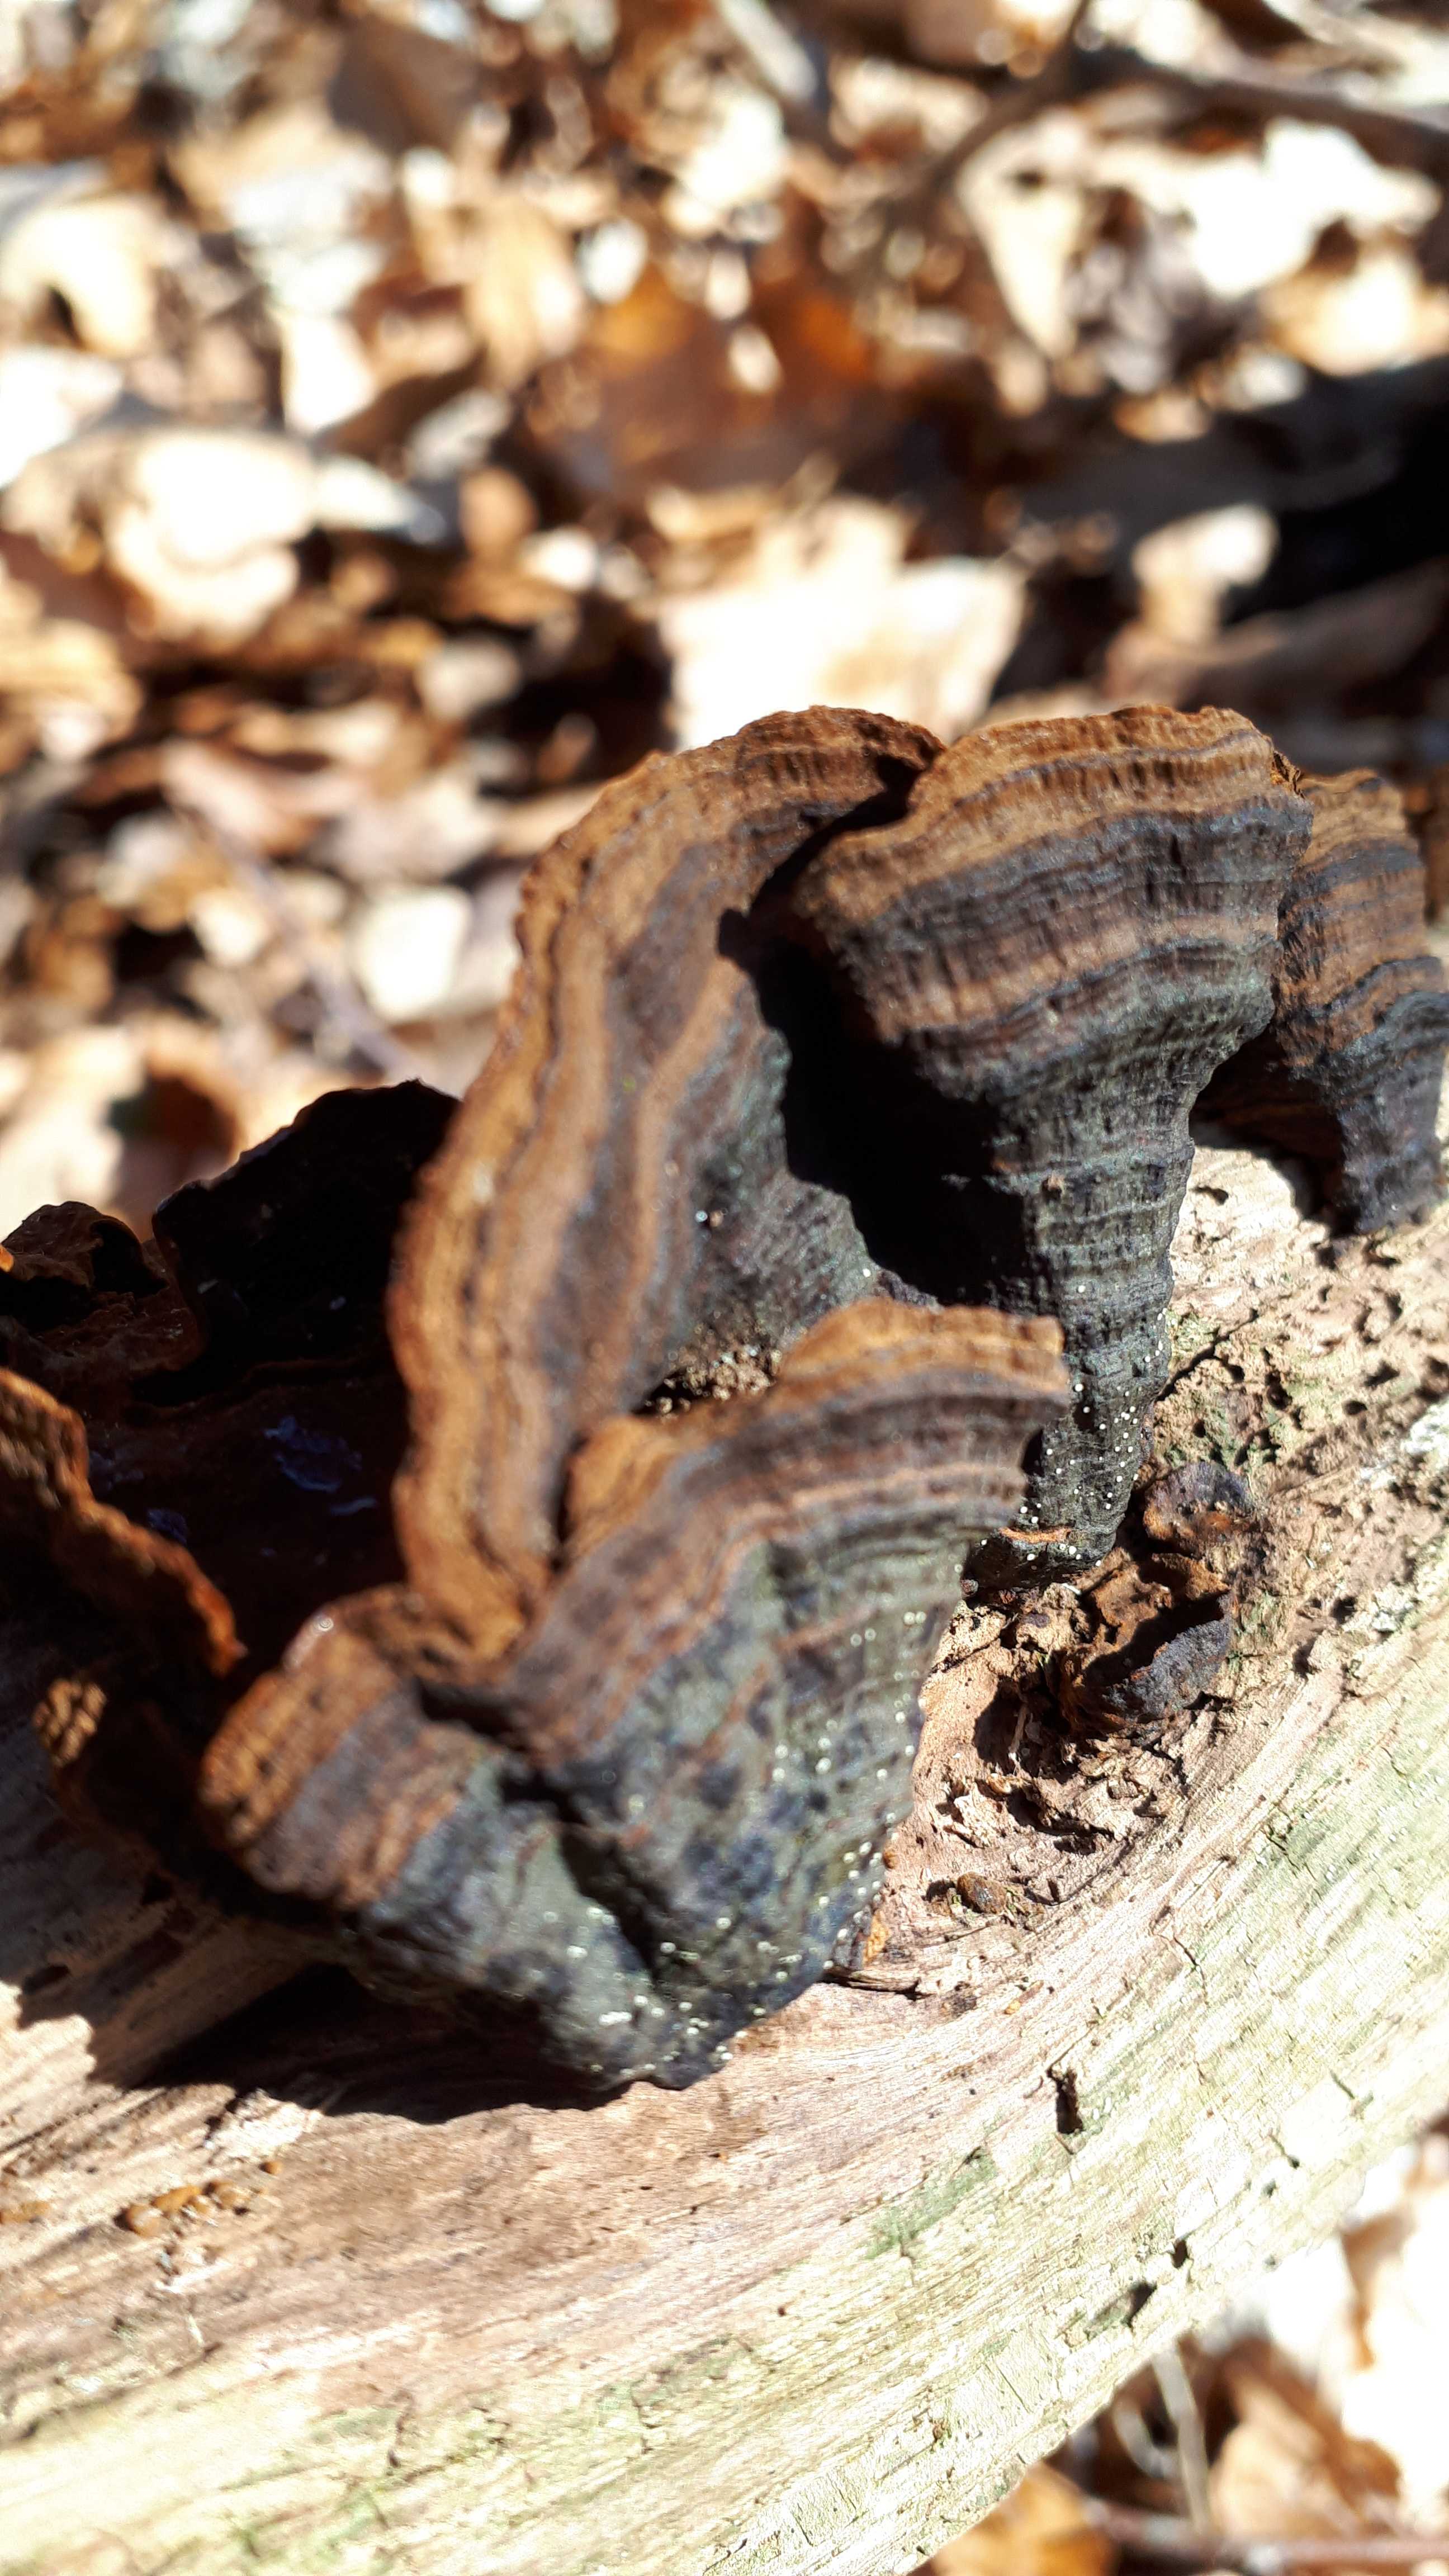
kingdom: Fungi
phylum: Basidiomycota
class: Agaricomycetes
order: Hymenochaetales
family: Hymenochaetaceae
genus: Hymenochaete
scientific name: Hymenochaete rubiginosa
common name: stiv ruslædersvamp
